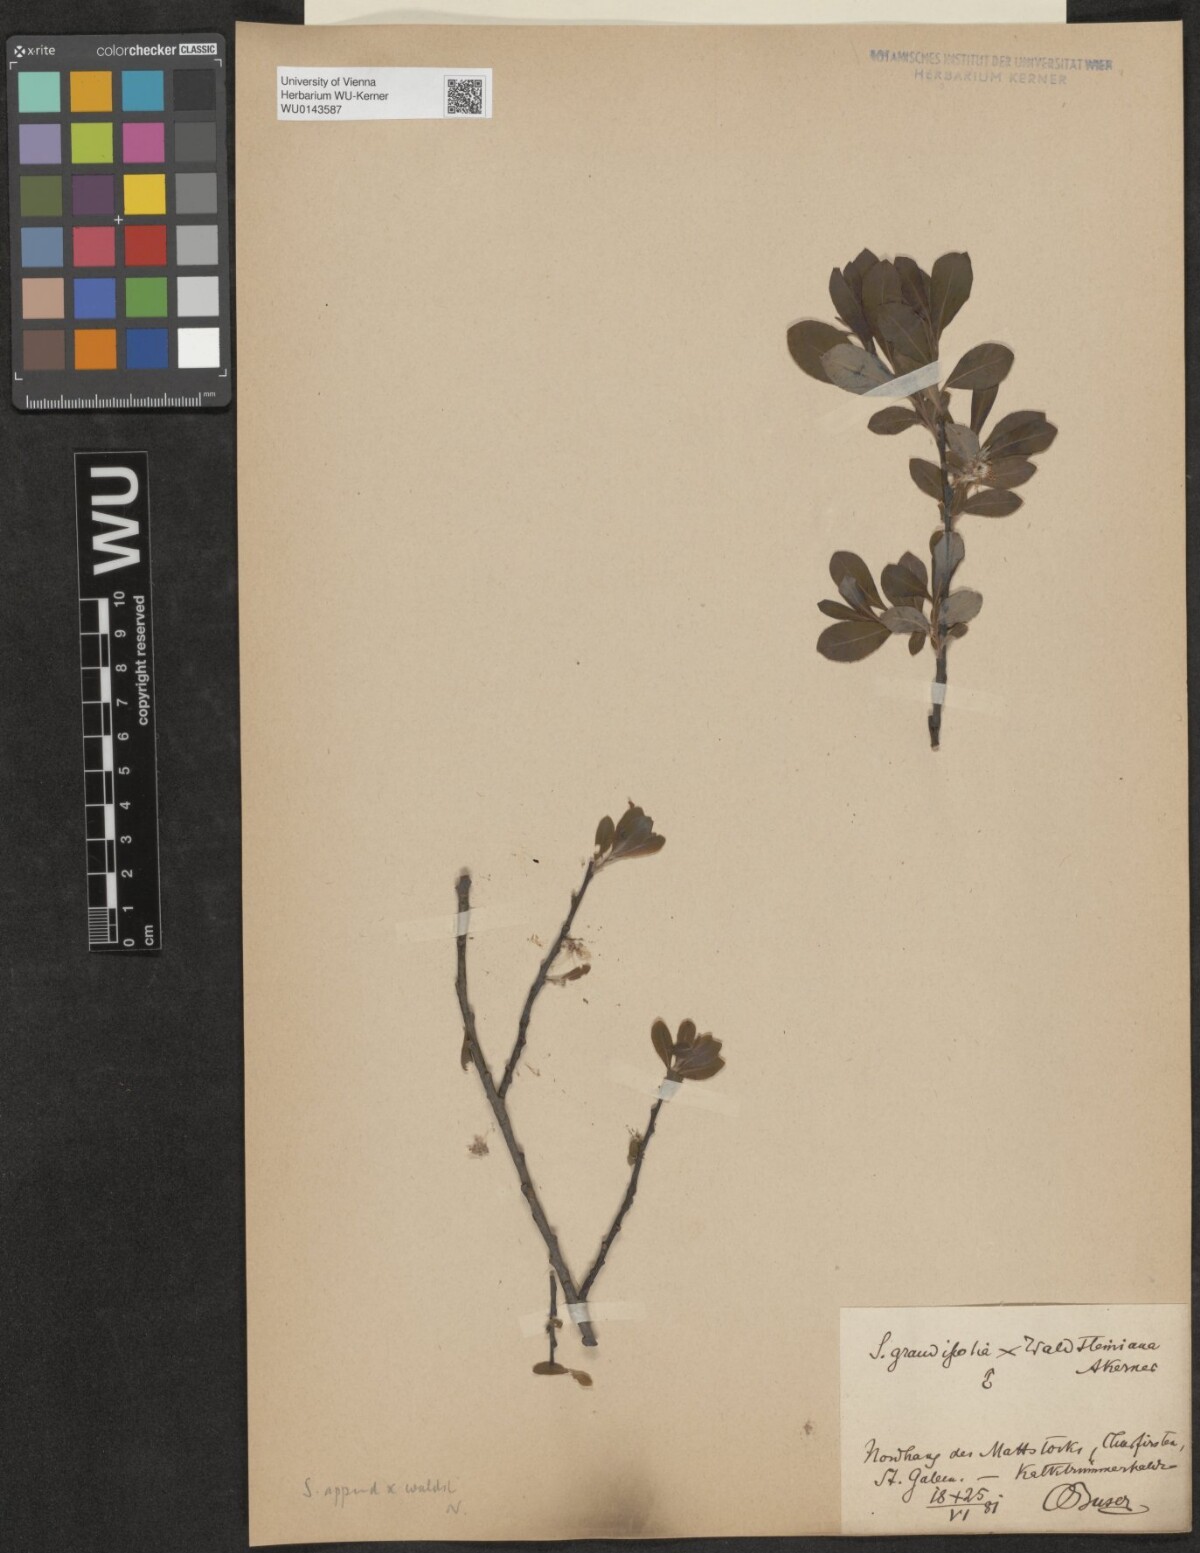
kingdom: Plantae
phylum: Tracheophyta
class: Magnoliopsida
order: Malpighiales
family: Salicaceae
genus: Salix
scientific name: Salix waldsteiniana
